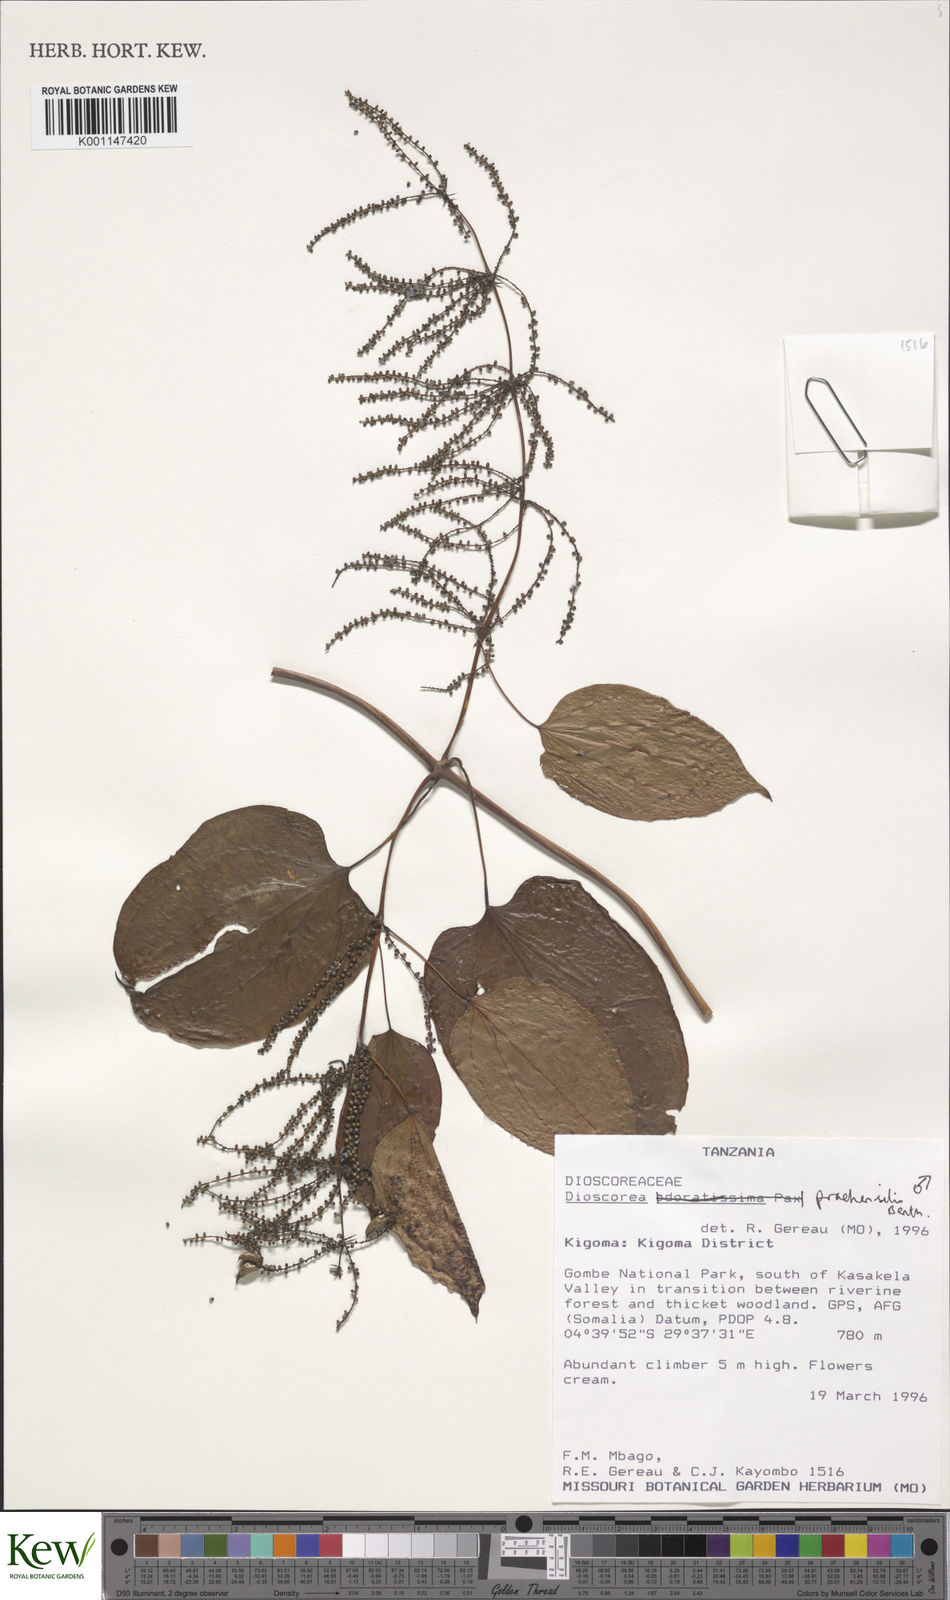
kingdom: Plantae
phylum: Tracheophyta
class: Liliopsida
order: Dioscoreales
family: Dioscoreaceae
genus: Dioscorea
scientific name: Dioscorea praehensilis
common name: Bush yam
